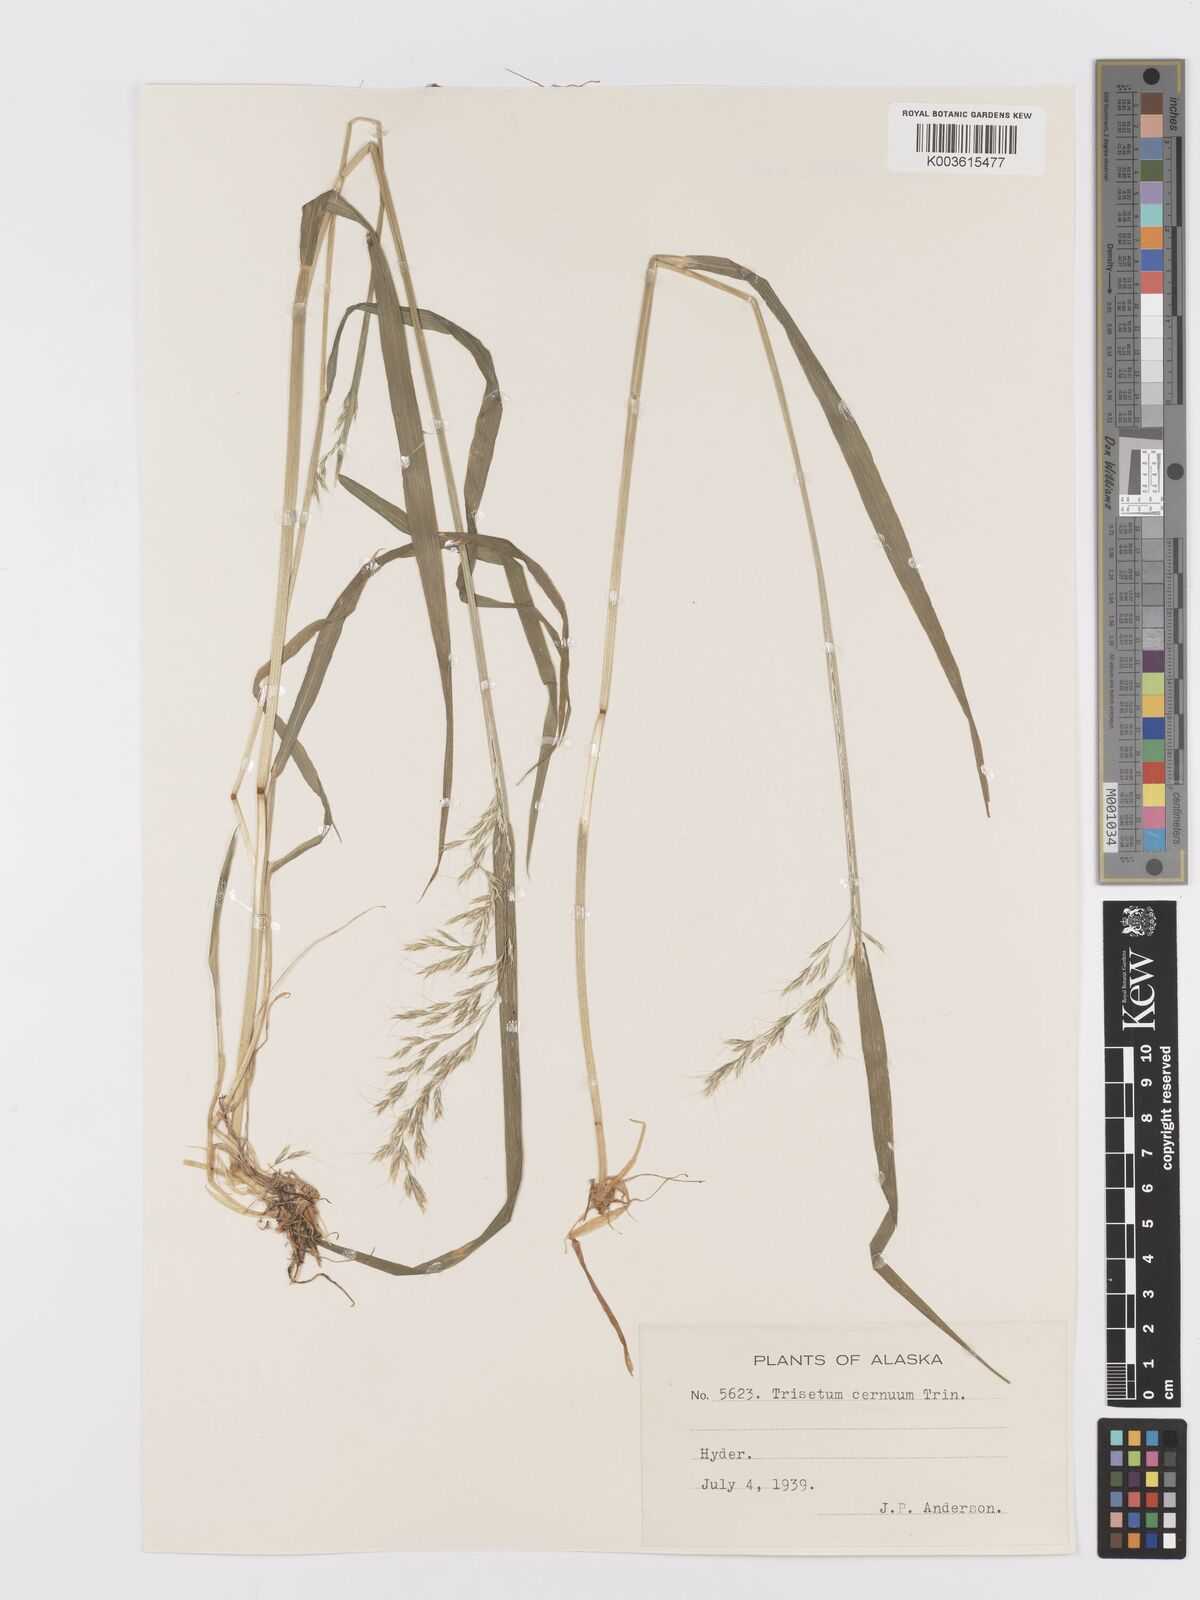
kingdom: Plantae
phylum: Tracheophyta
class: Liliopsida
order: Poales
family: Poaceae
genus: Graphephorum
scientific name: Graphephorum cernuum
